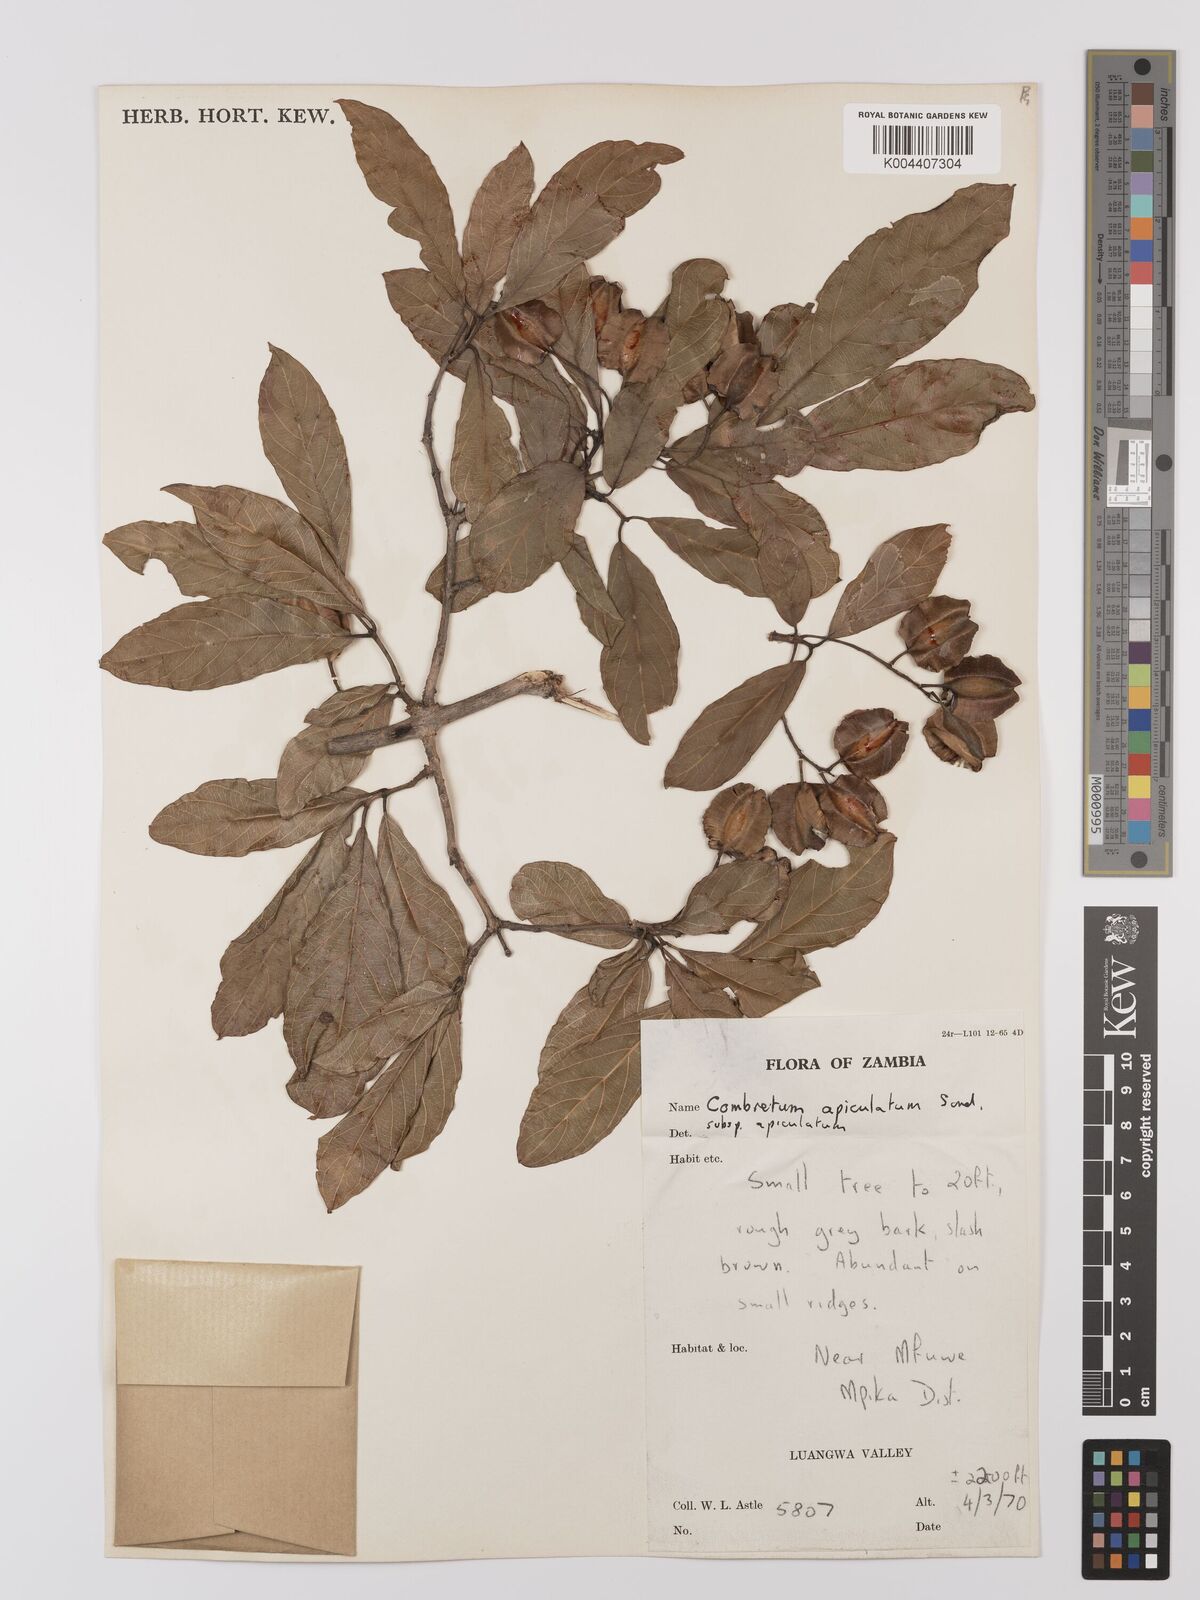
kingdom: Plantae
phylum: Tracheophyta
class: Magnoliopsida
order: Myrtales
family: Combretaceae
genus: Combretum
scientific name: Combretum apiculatum
